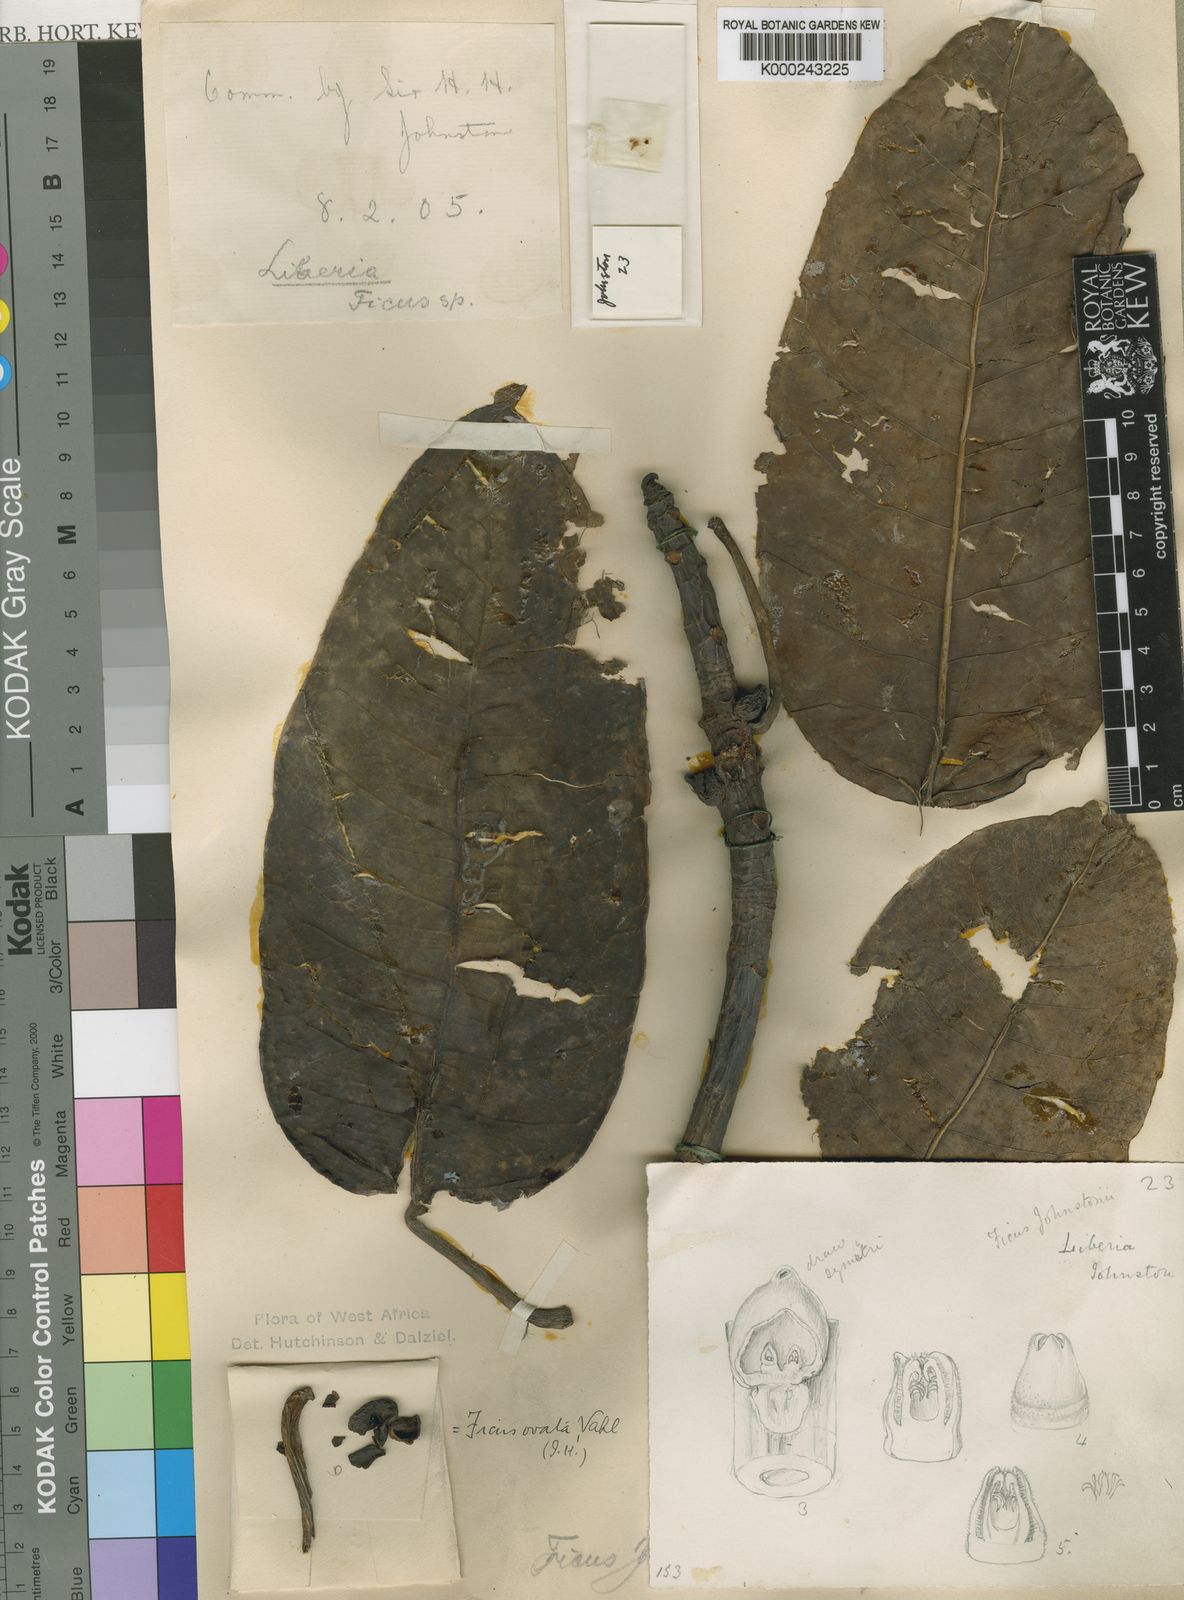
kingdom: Plantae
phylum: Tracheophyta
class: Magnoliopsida
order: Rosales
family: Moraceae
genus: Ficus
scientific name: Ficus laurifolia
